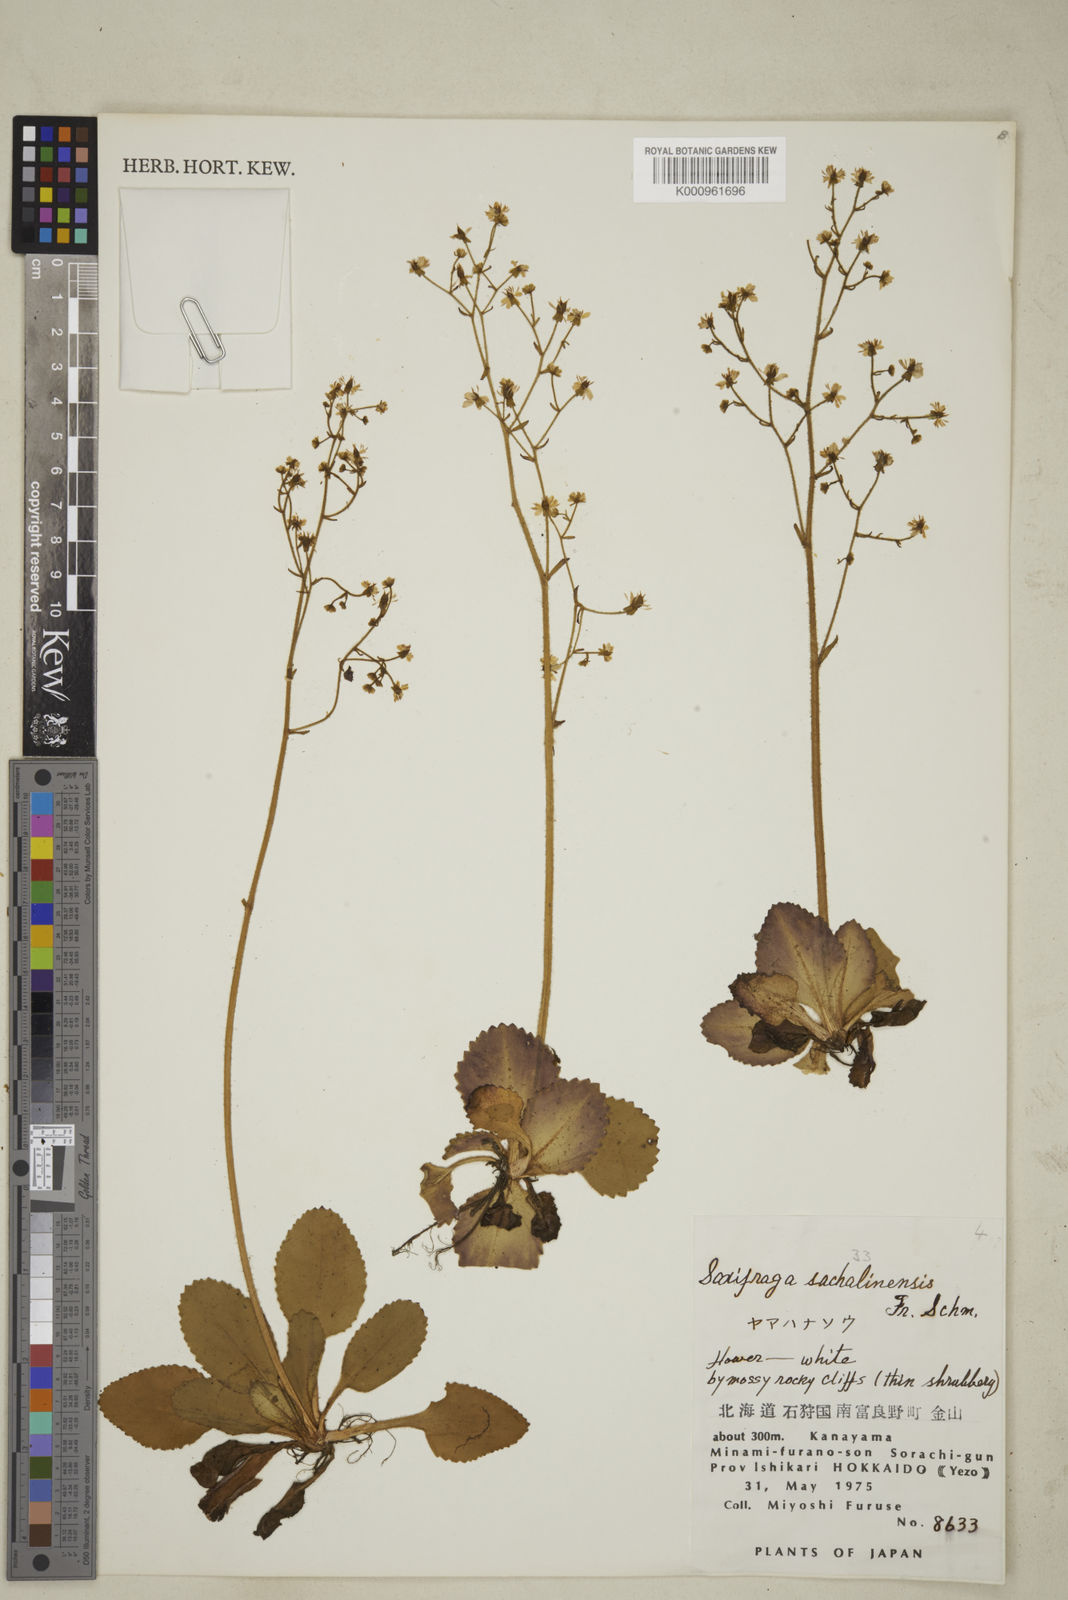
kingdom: Plantae
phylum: Tracheophyta
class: Magnoliopsida
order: Saxifragales
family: Saxifragaceae
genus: Micranthes
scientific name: Micranthes sachalinensis
